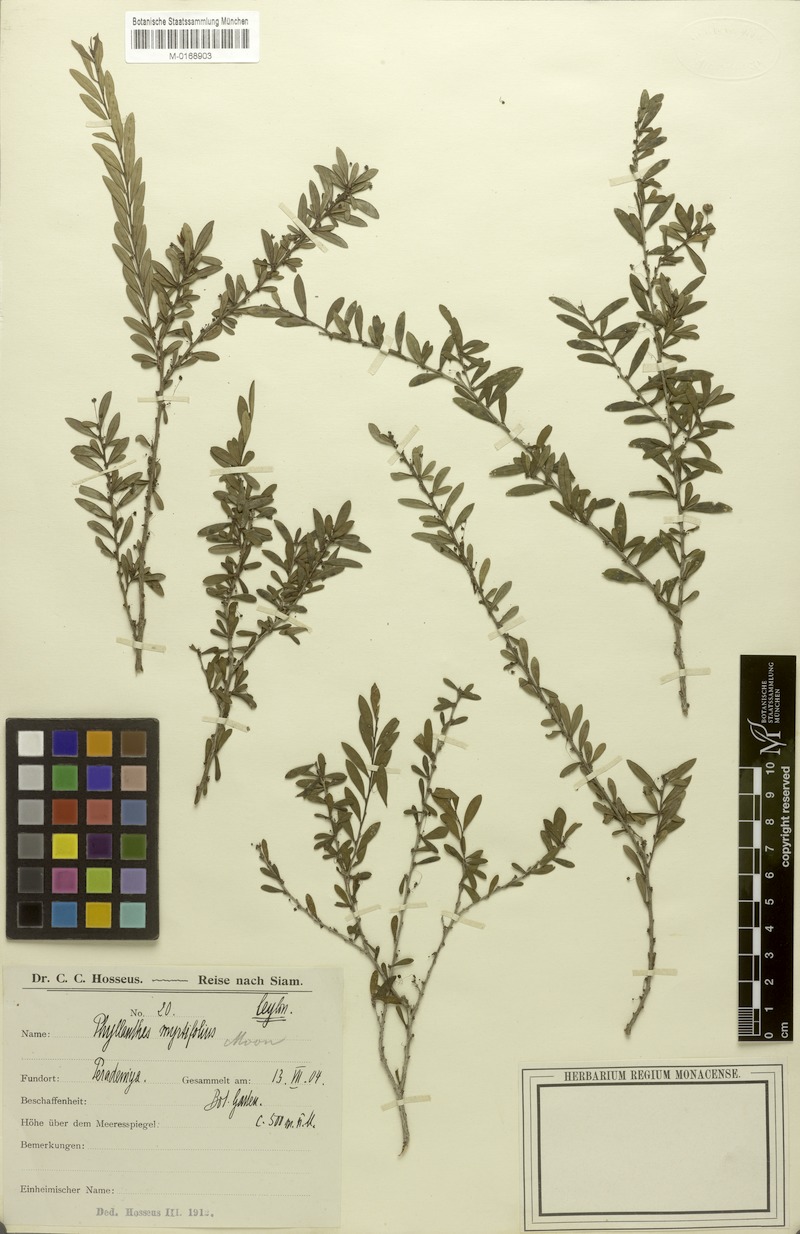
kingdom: Plantae
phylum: Tracheophyta
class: Magnoliopsida
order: Malpighiales
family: Phyllanthaceae
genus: Phyllanthus
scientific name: Phyllanthus myrtifolius
